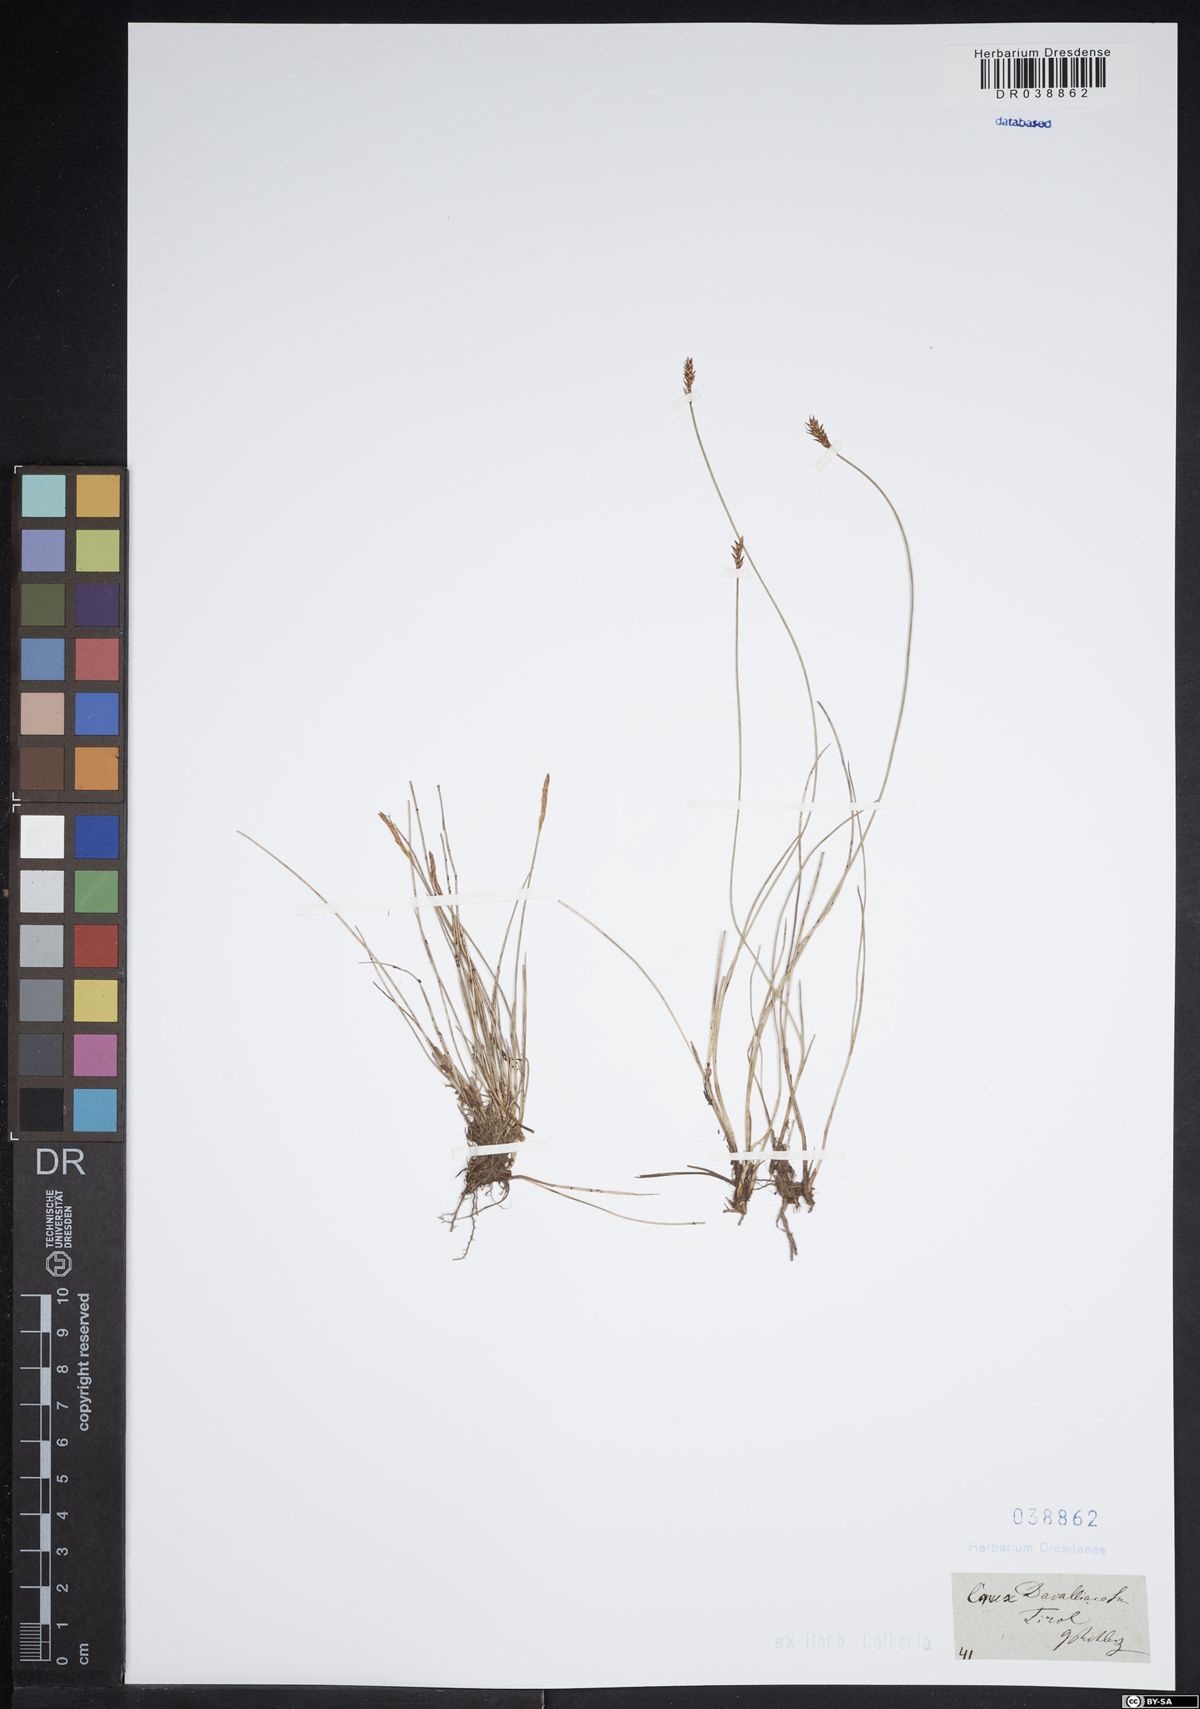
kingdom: Plantae
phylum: Tracheophyta
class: Liliopsida
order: Poales
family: Cyperaceae
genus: Carex
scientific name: Carex davalliana
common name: Davall's sedge
